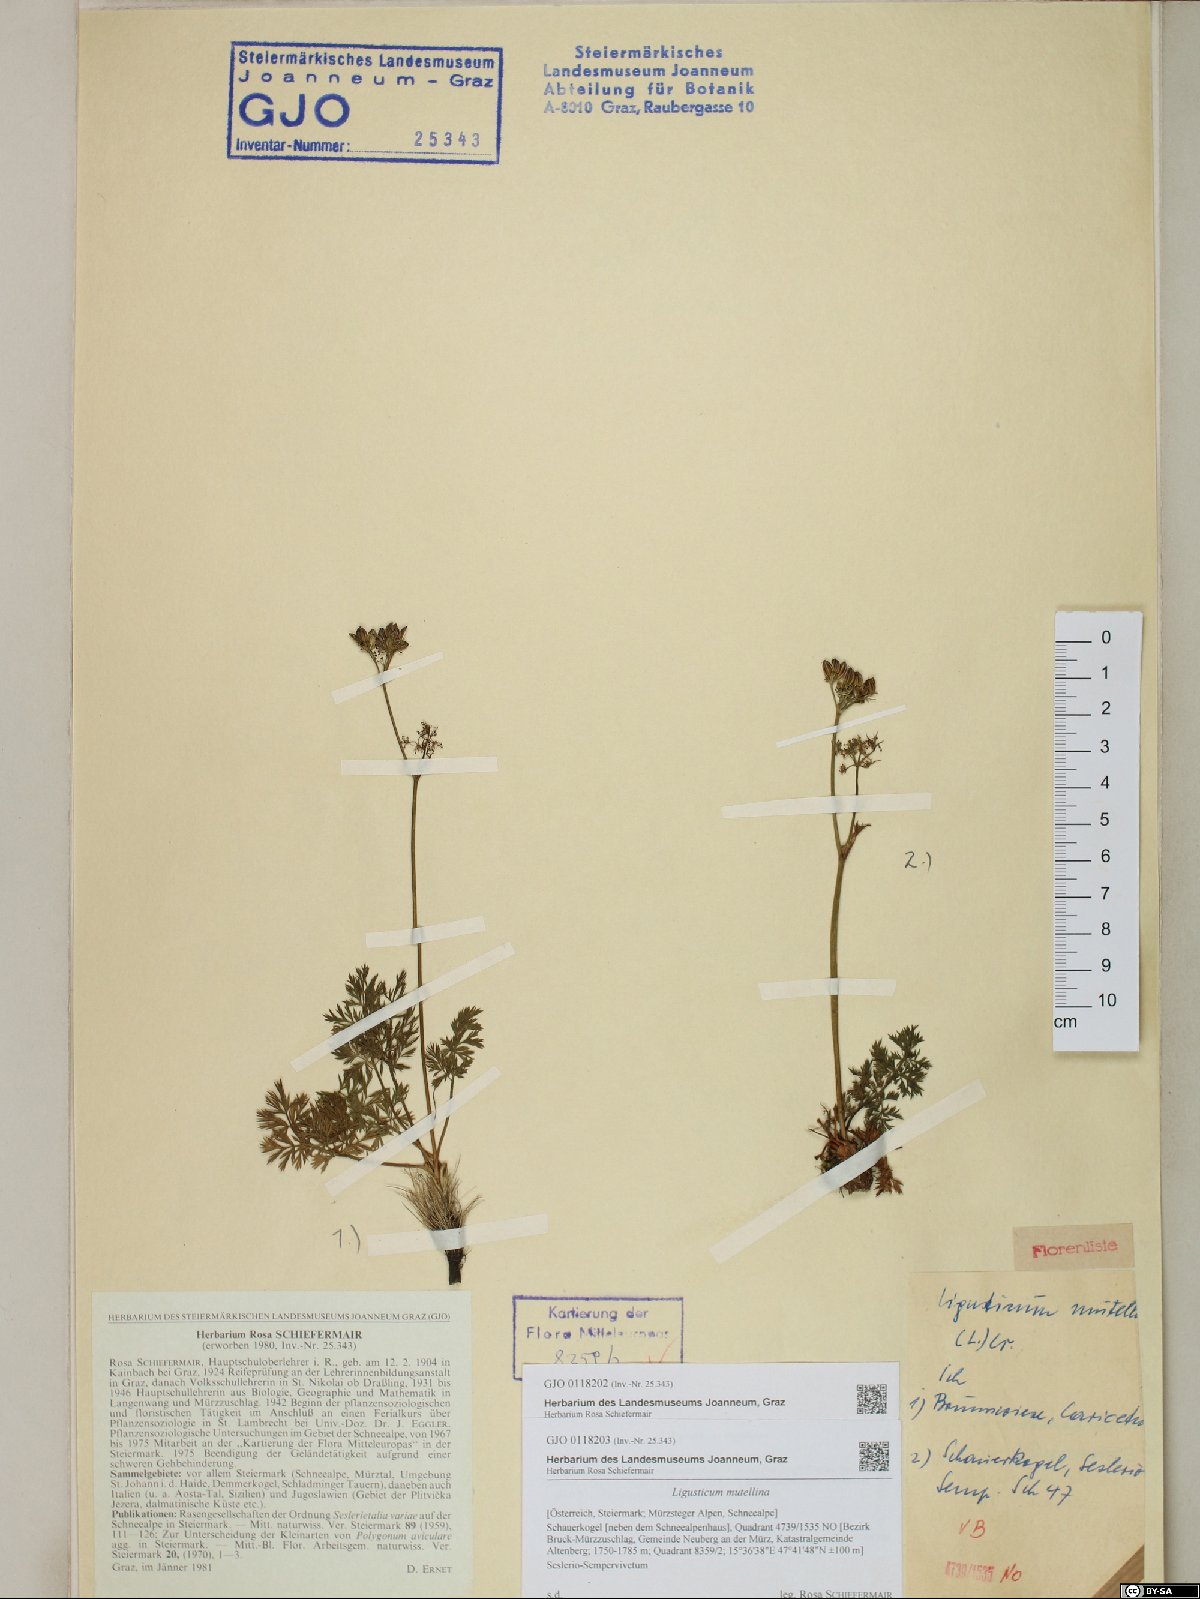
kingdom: Plantae
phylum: Tracheophyta
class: Magnoliopsida
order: Apiales
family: Apiaceae
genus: Mutellina
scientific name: Mutellina adonidifolia
